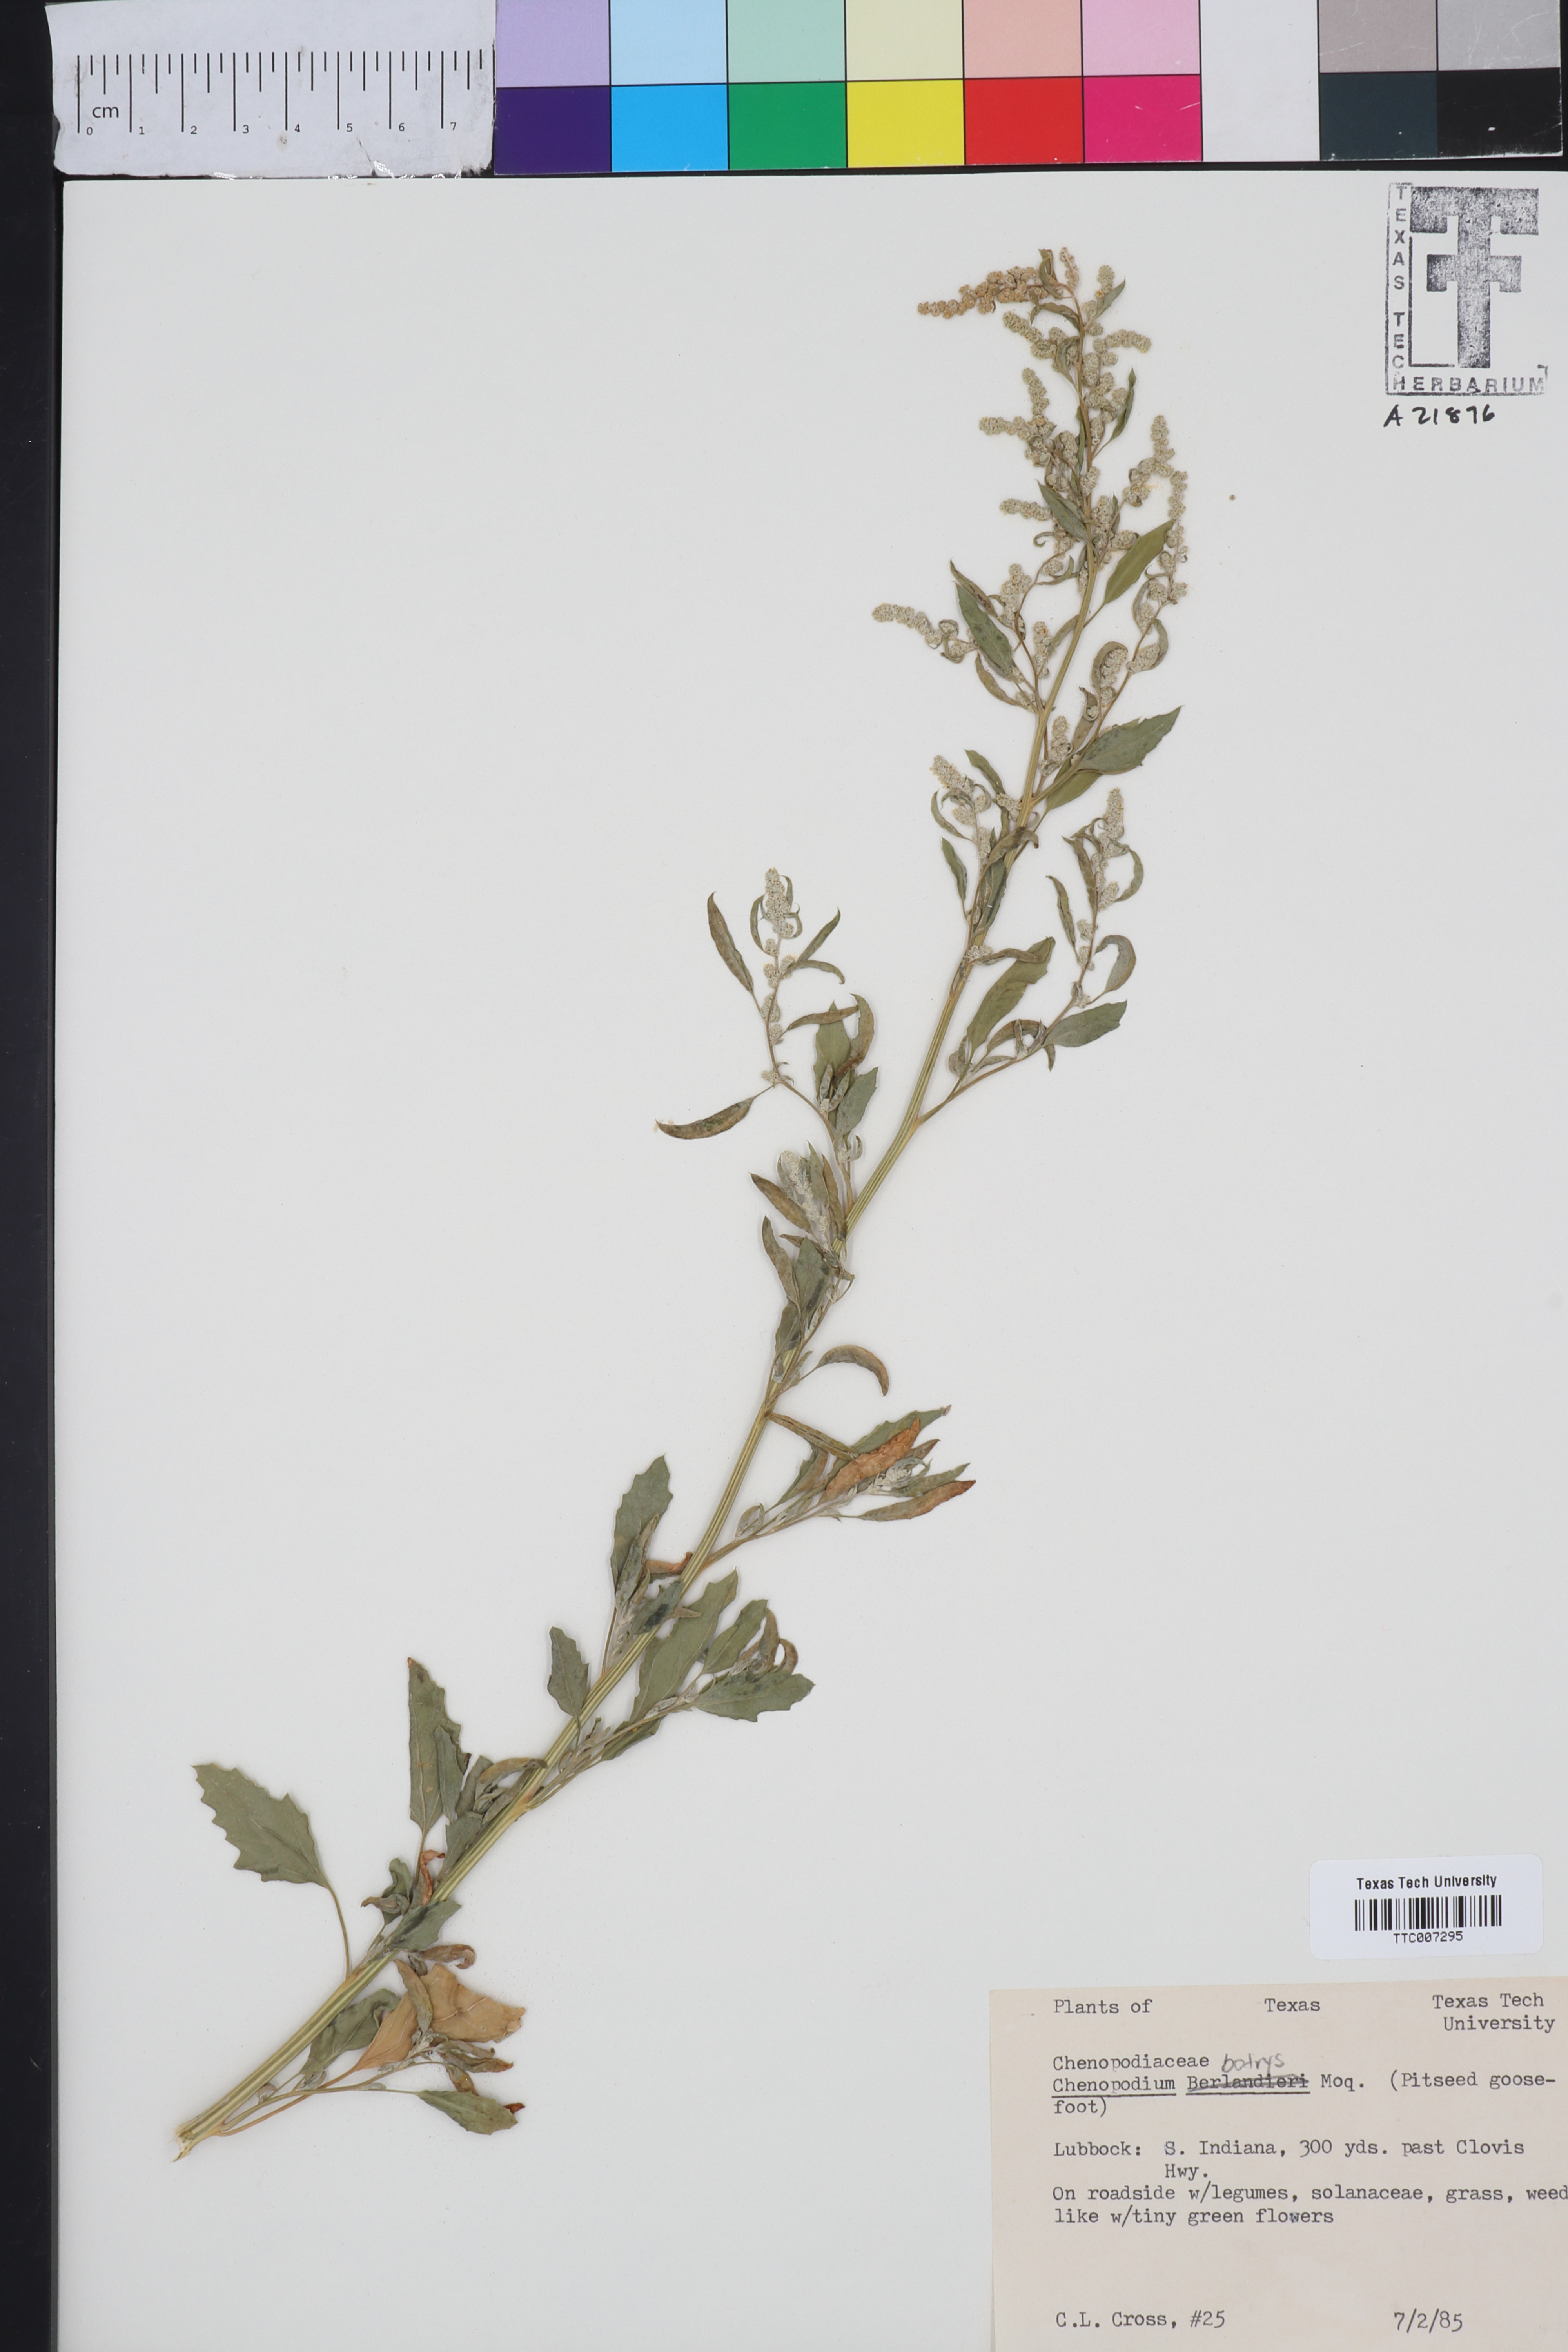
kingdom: Plantae
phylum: Tracheophyta
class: Magnoliopsida
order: Caryophyllales
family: Amaranthaceae
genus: Chenopodium
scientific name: Chenopodium berlandieri
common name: Pit-seed goosefoot
